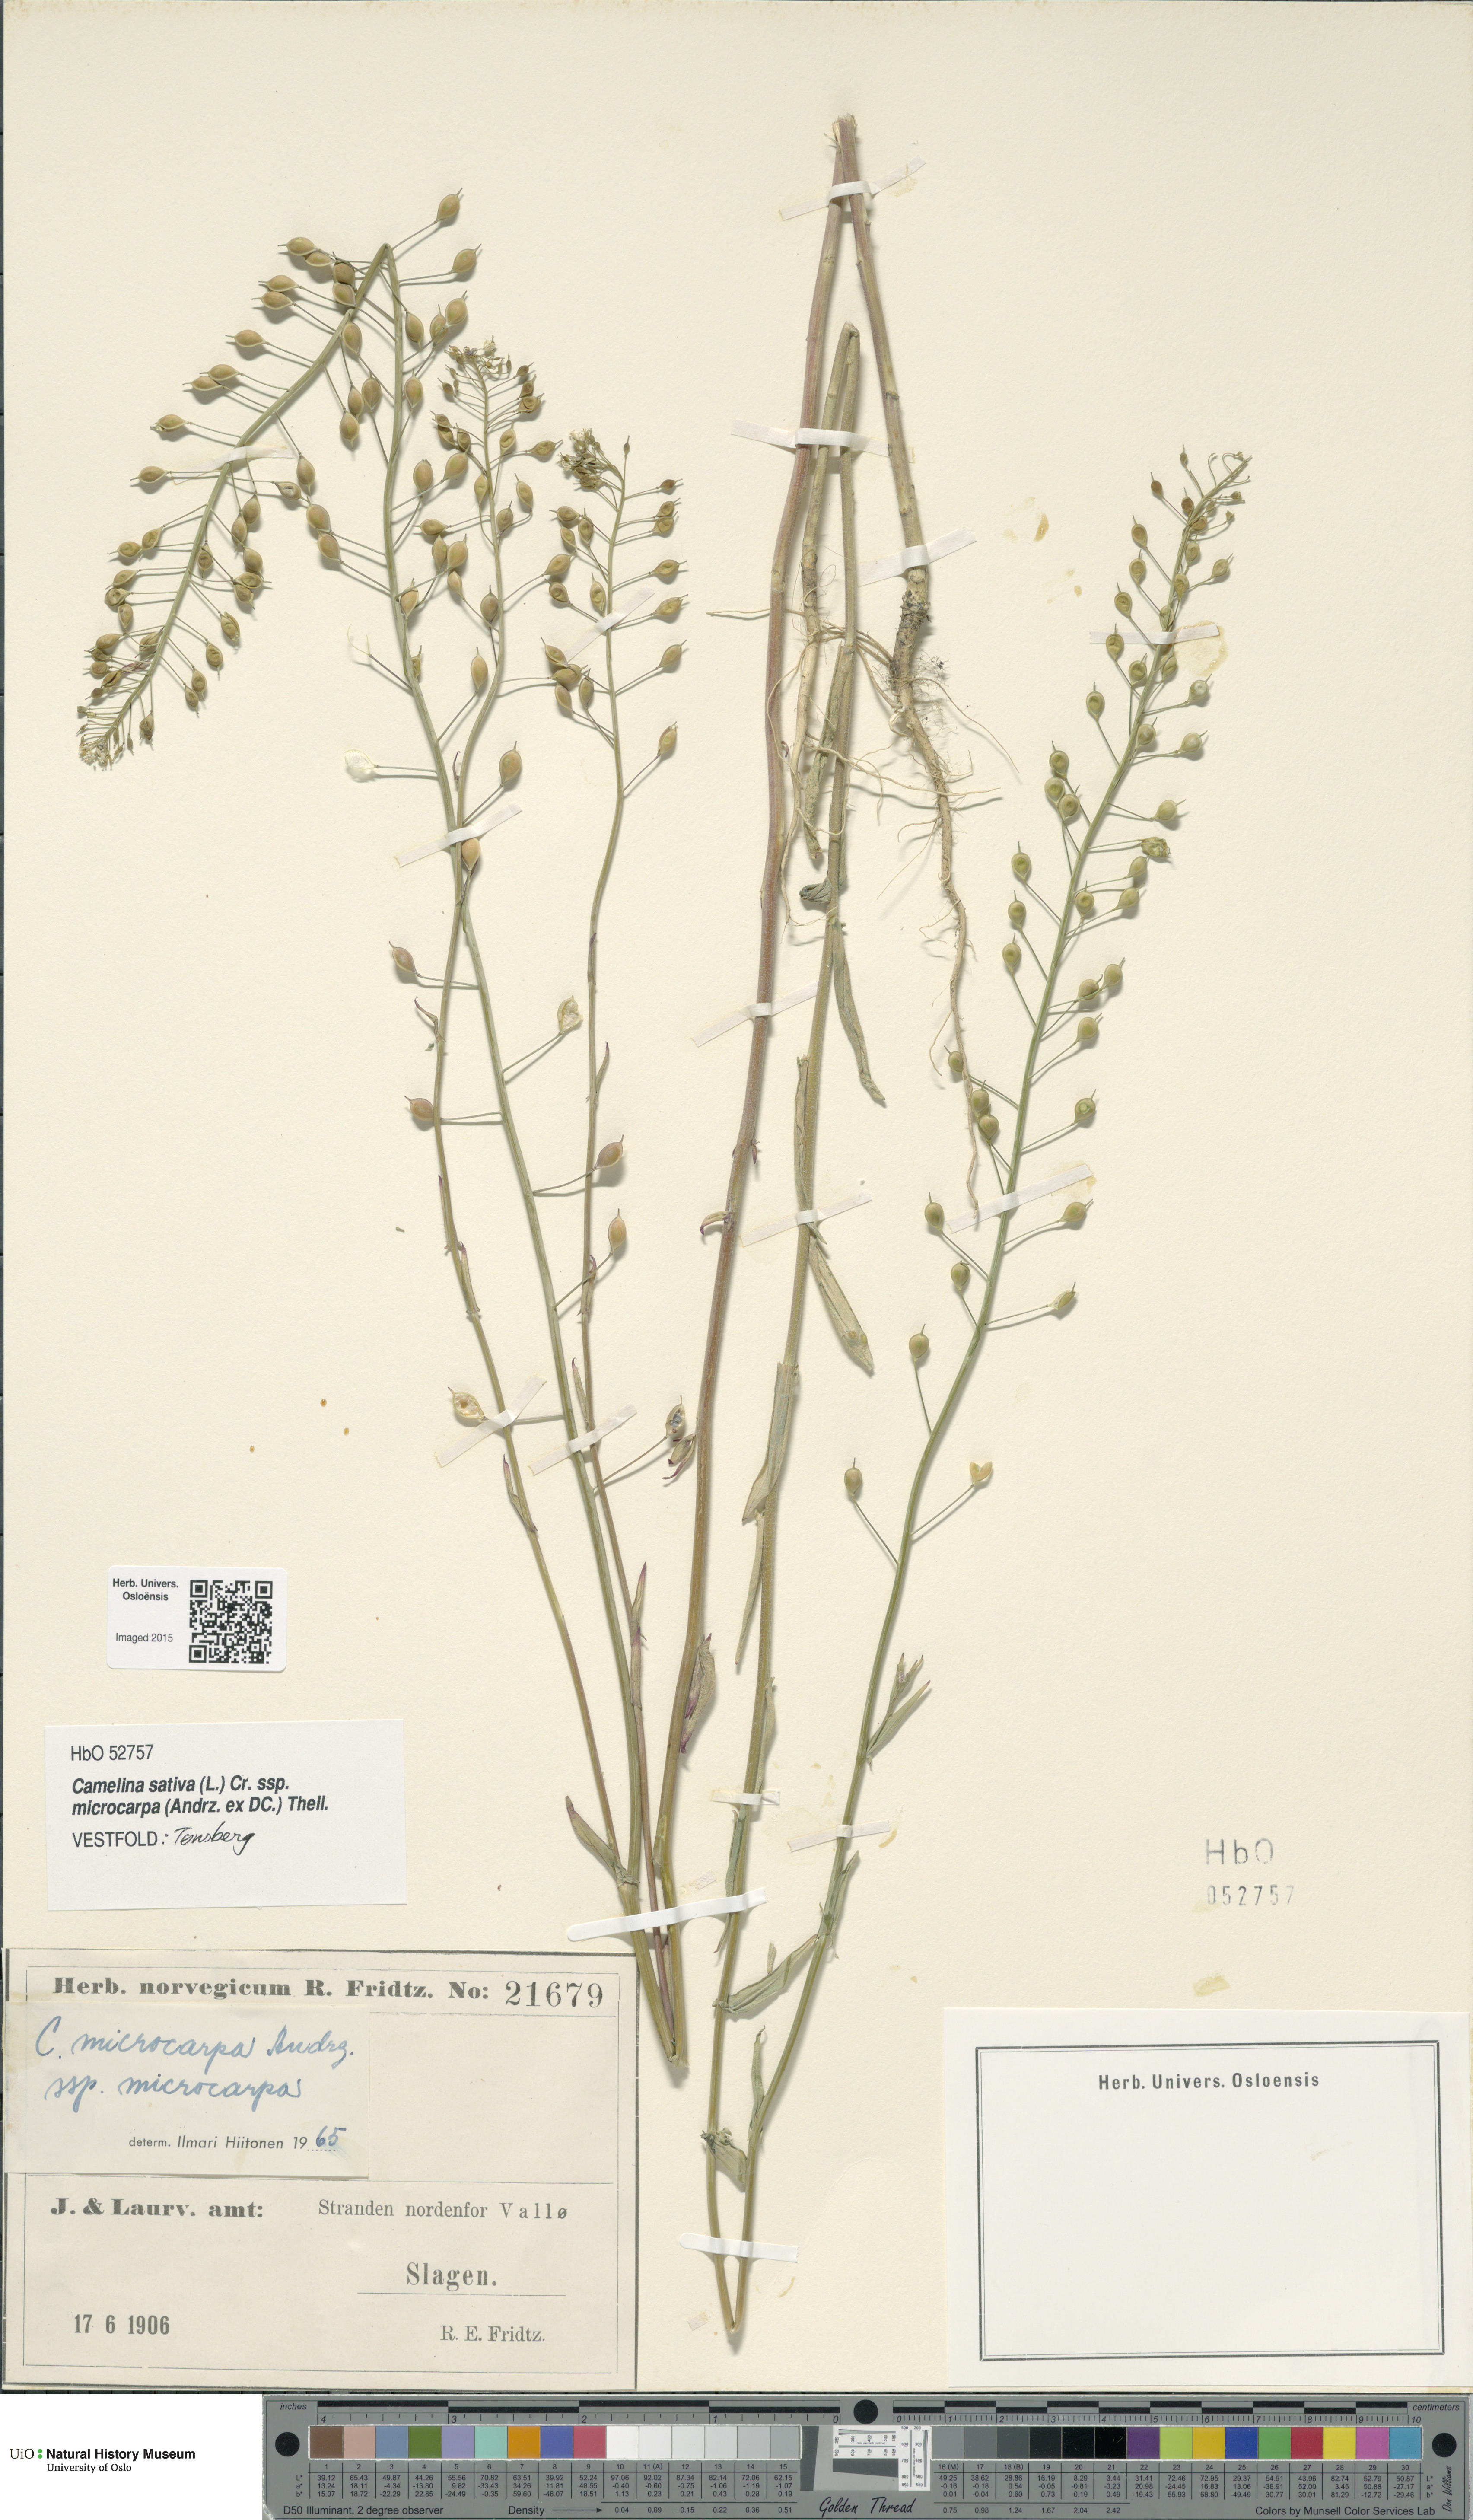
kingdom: Plantae
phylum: Tracheophyta
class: Magnoliopsida
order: Brassicales
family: Brassicaceae
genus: Camelina
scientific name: Camelina sativa
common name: Gold-of-pleasure
